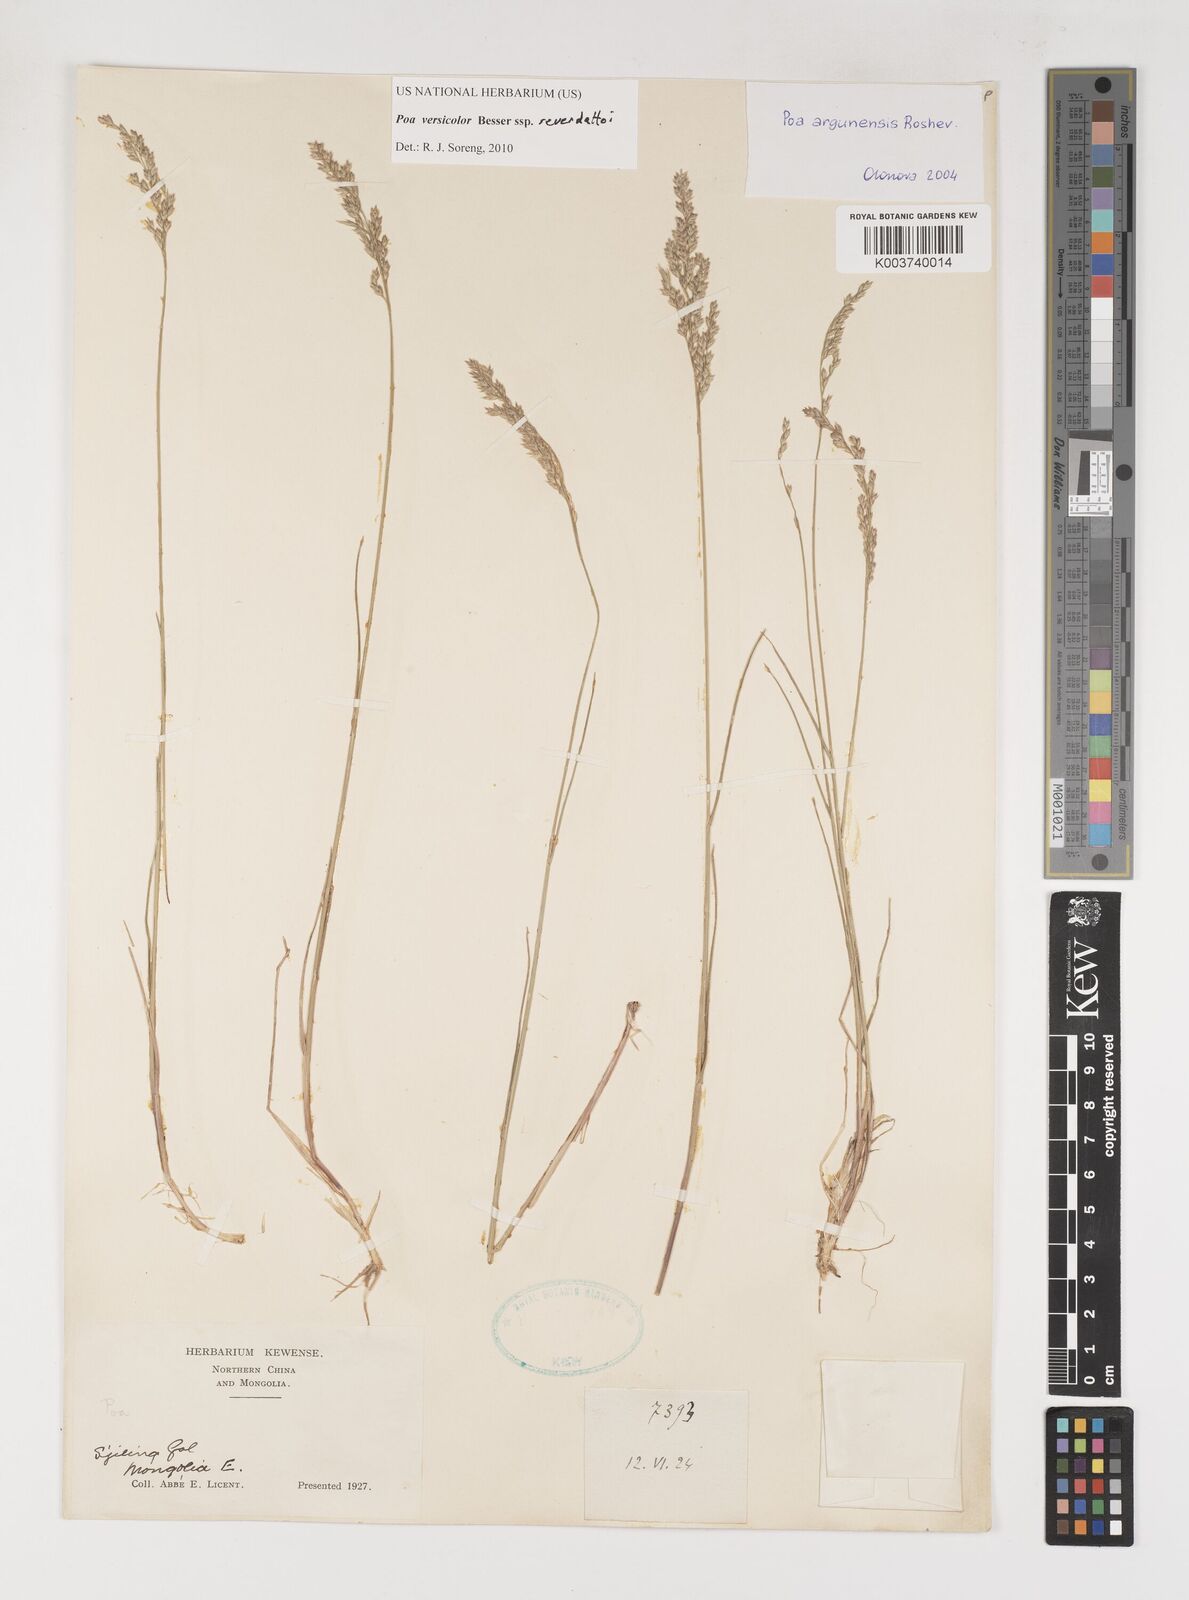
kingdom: Plantae
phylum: Tracheophyta
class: Liliopsida
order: Poales
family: Poaceae
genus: Poa
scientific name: Poa glauca
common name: Glaucous bluegrass
